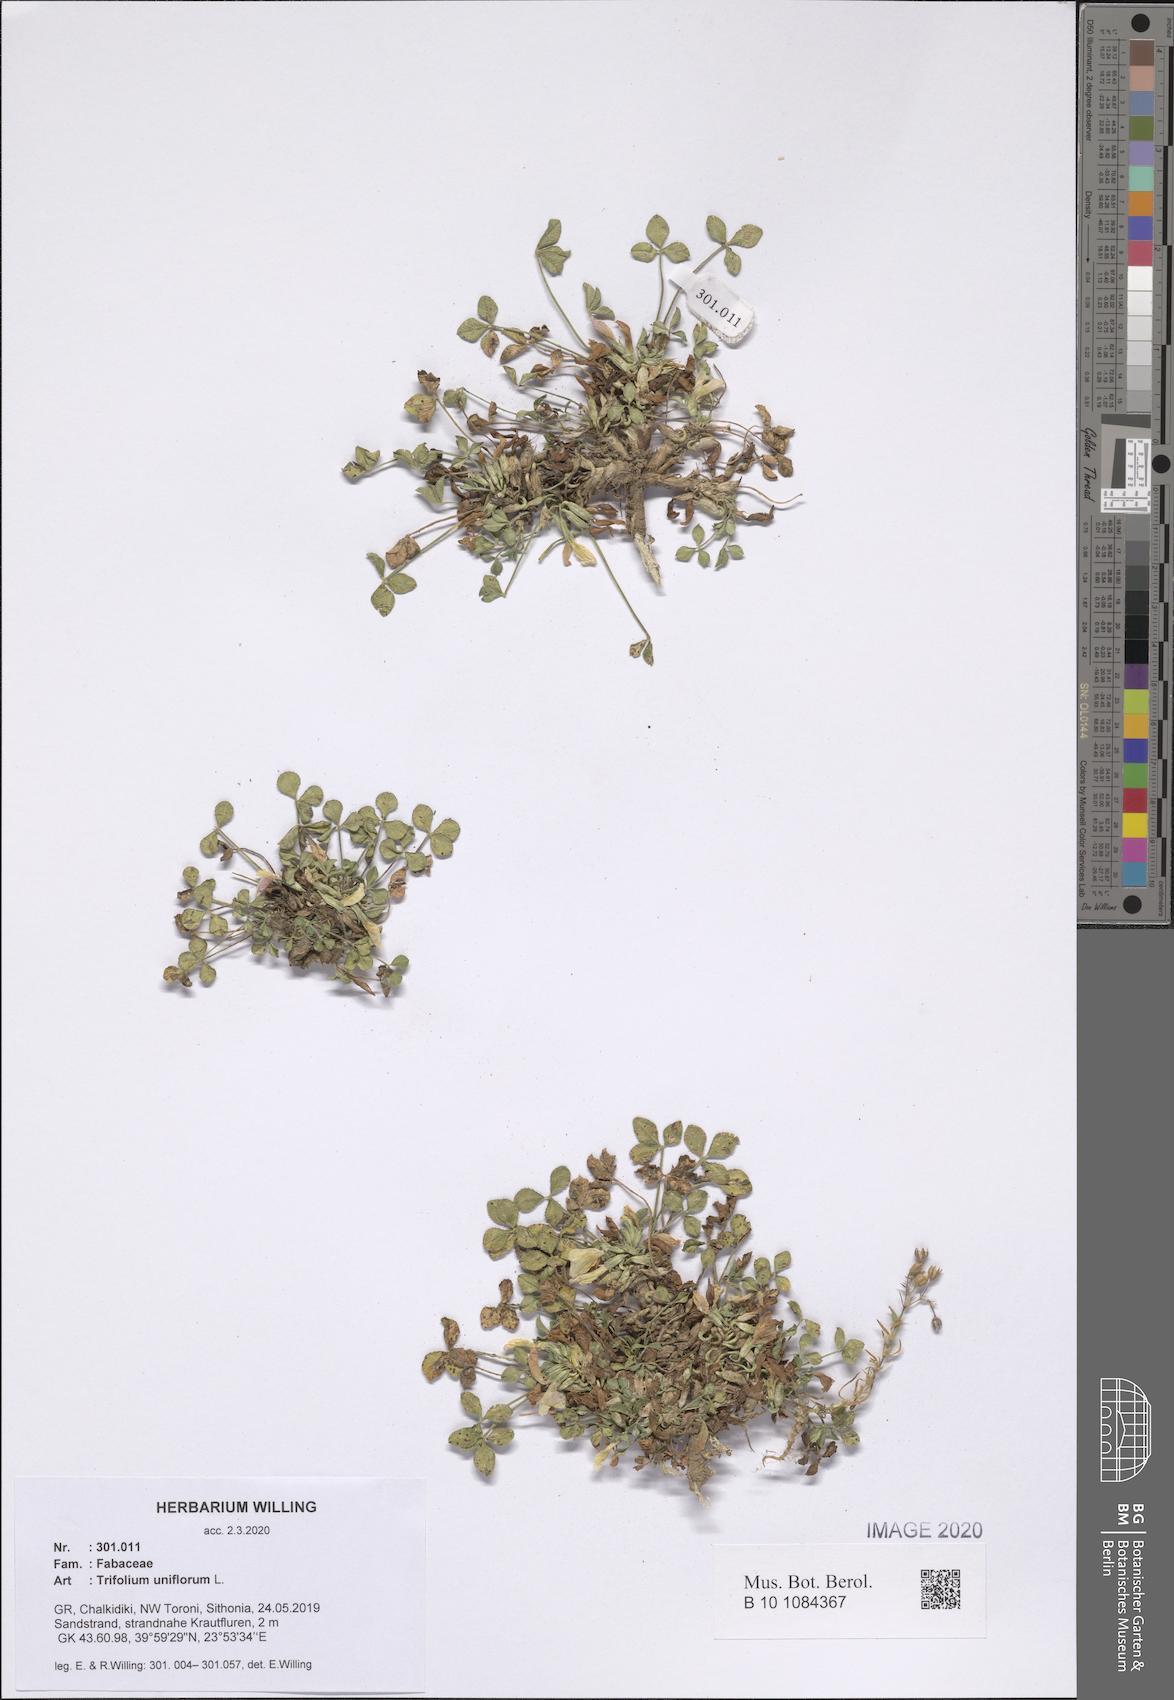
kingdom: Plantae
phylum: Tracheophyta
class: Magnoliopsida
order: Fabales
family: Fabaceae
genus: Trifolium
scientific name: Trifolium uniflorum
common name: One-flower clover
